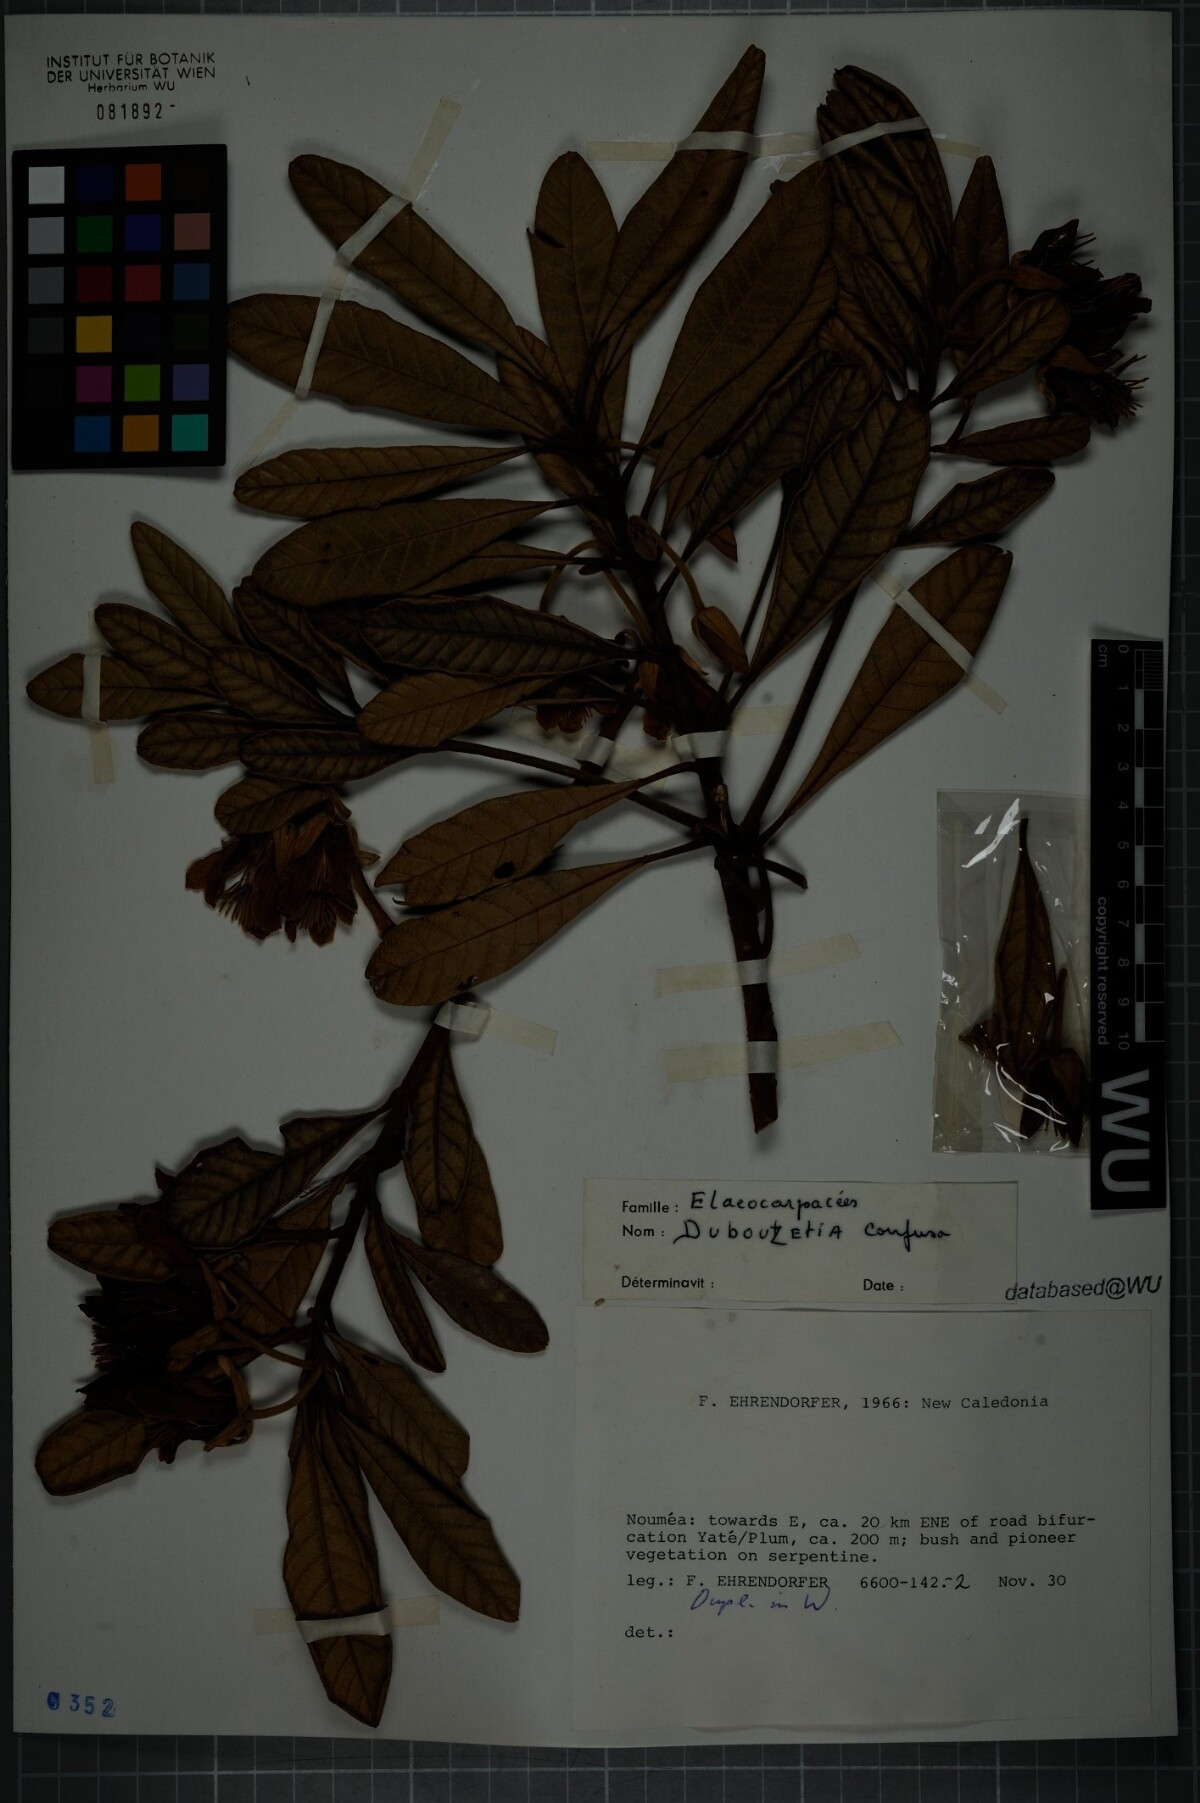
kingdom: Plantae
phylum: Tracheophyta
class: Magnoliopsida
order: Oxalidales
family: Elaeocarpaceae
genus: Dubouzetia
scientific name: Dubouzetia confusa
